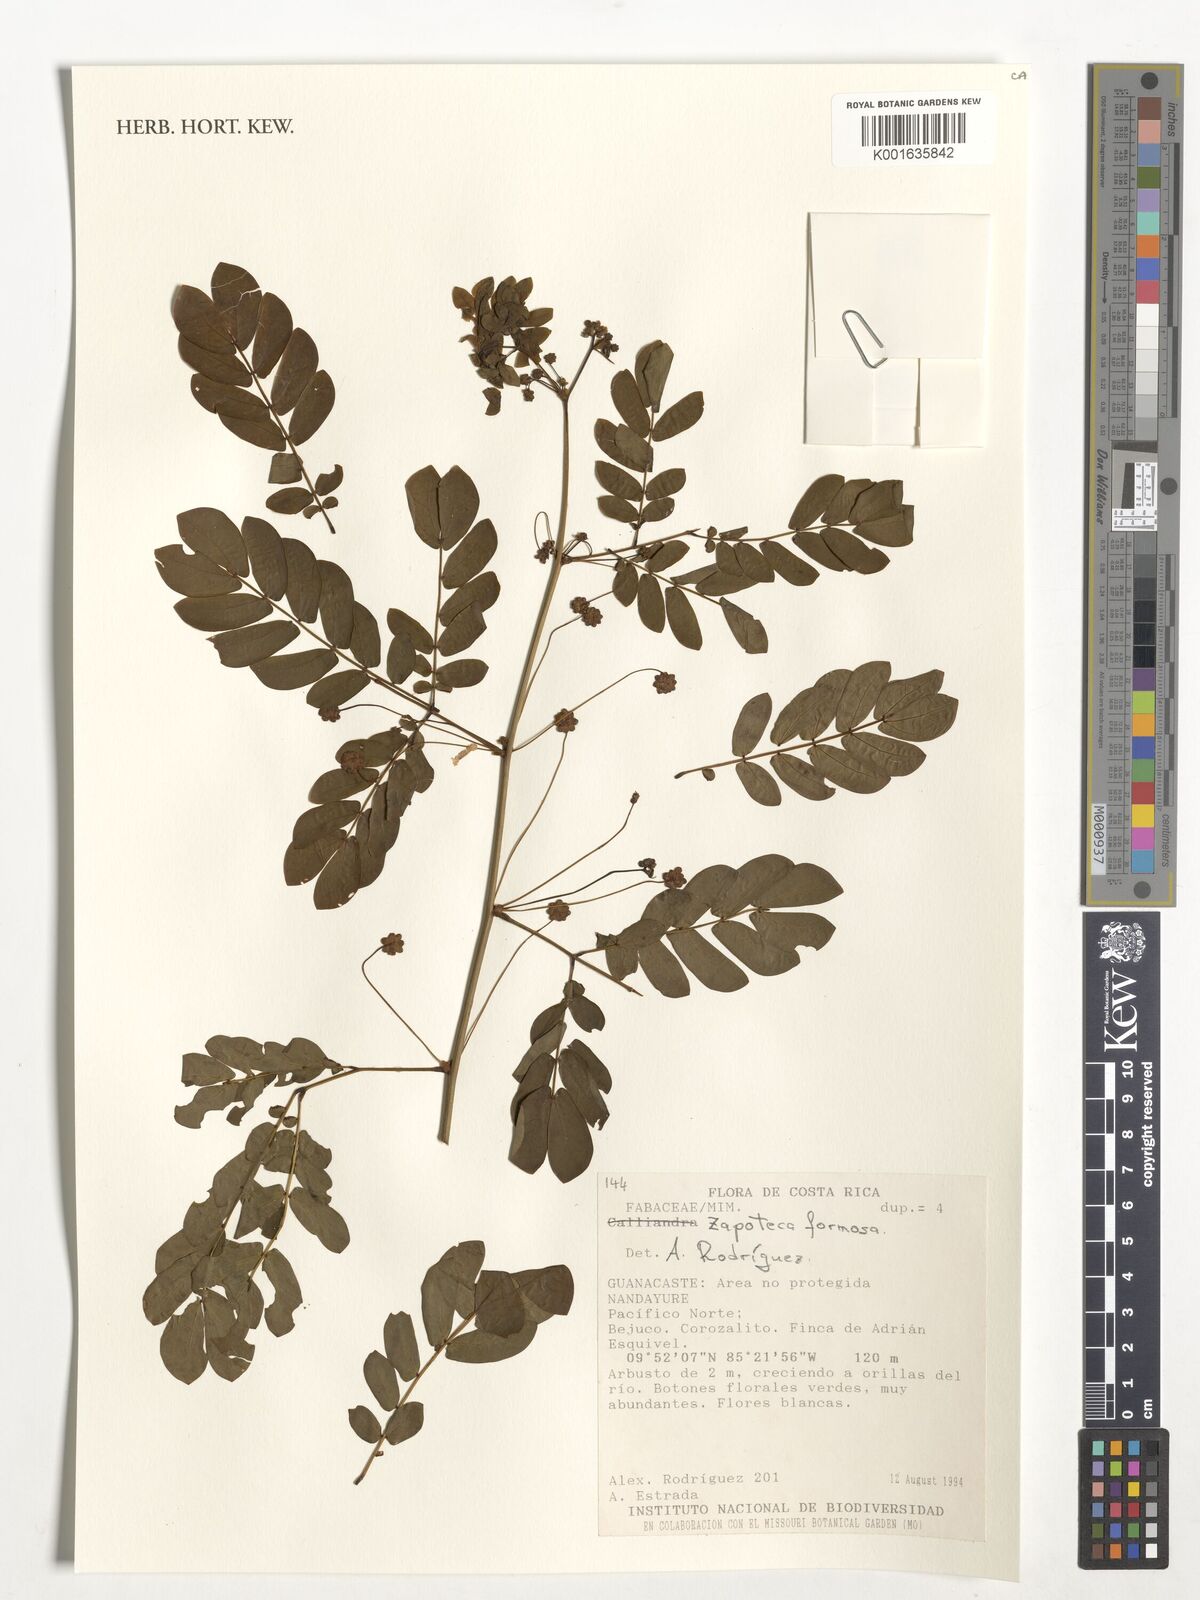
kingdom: Plantae
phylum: Tracheophyta
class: Magnoliopsida
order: Fabales
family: Fabaceae
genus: Zapoteca
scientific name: Zapoteca formosa
